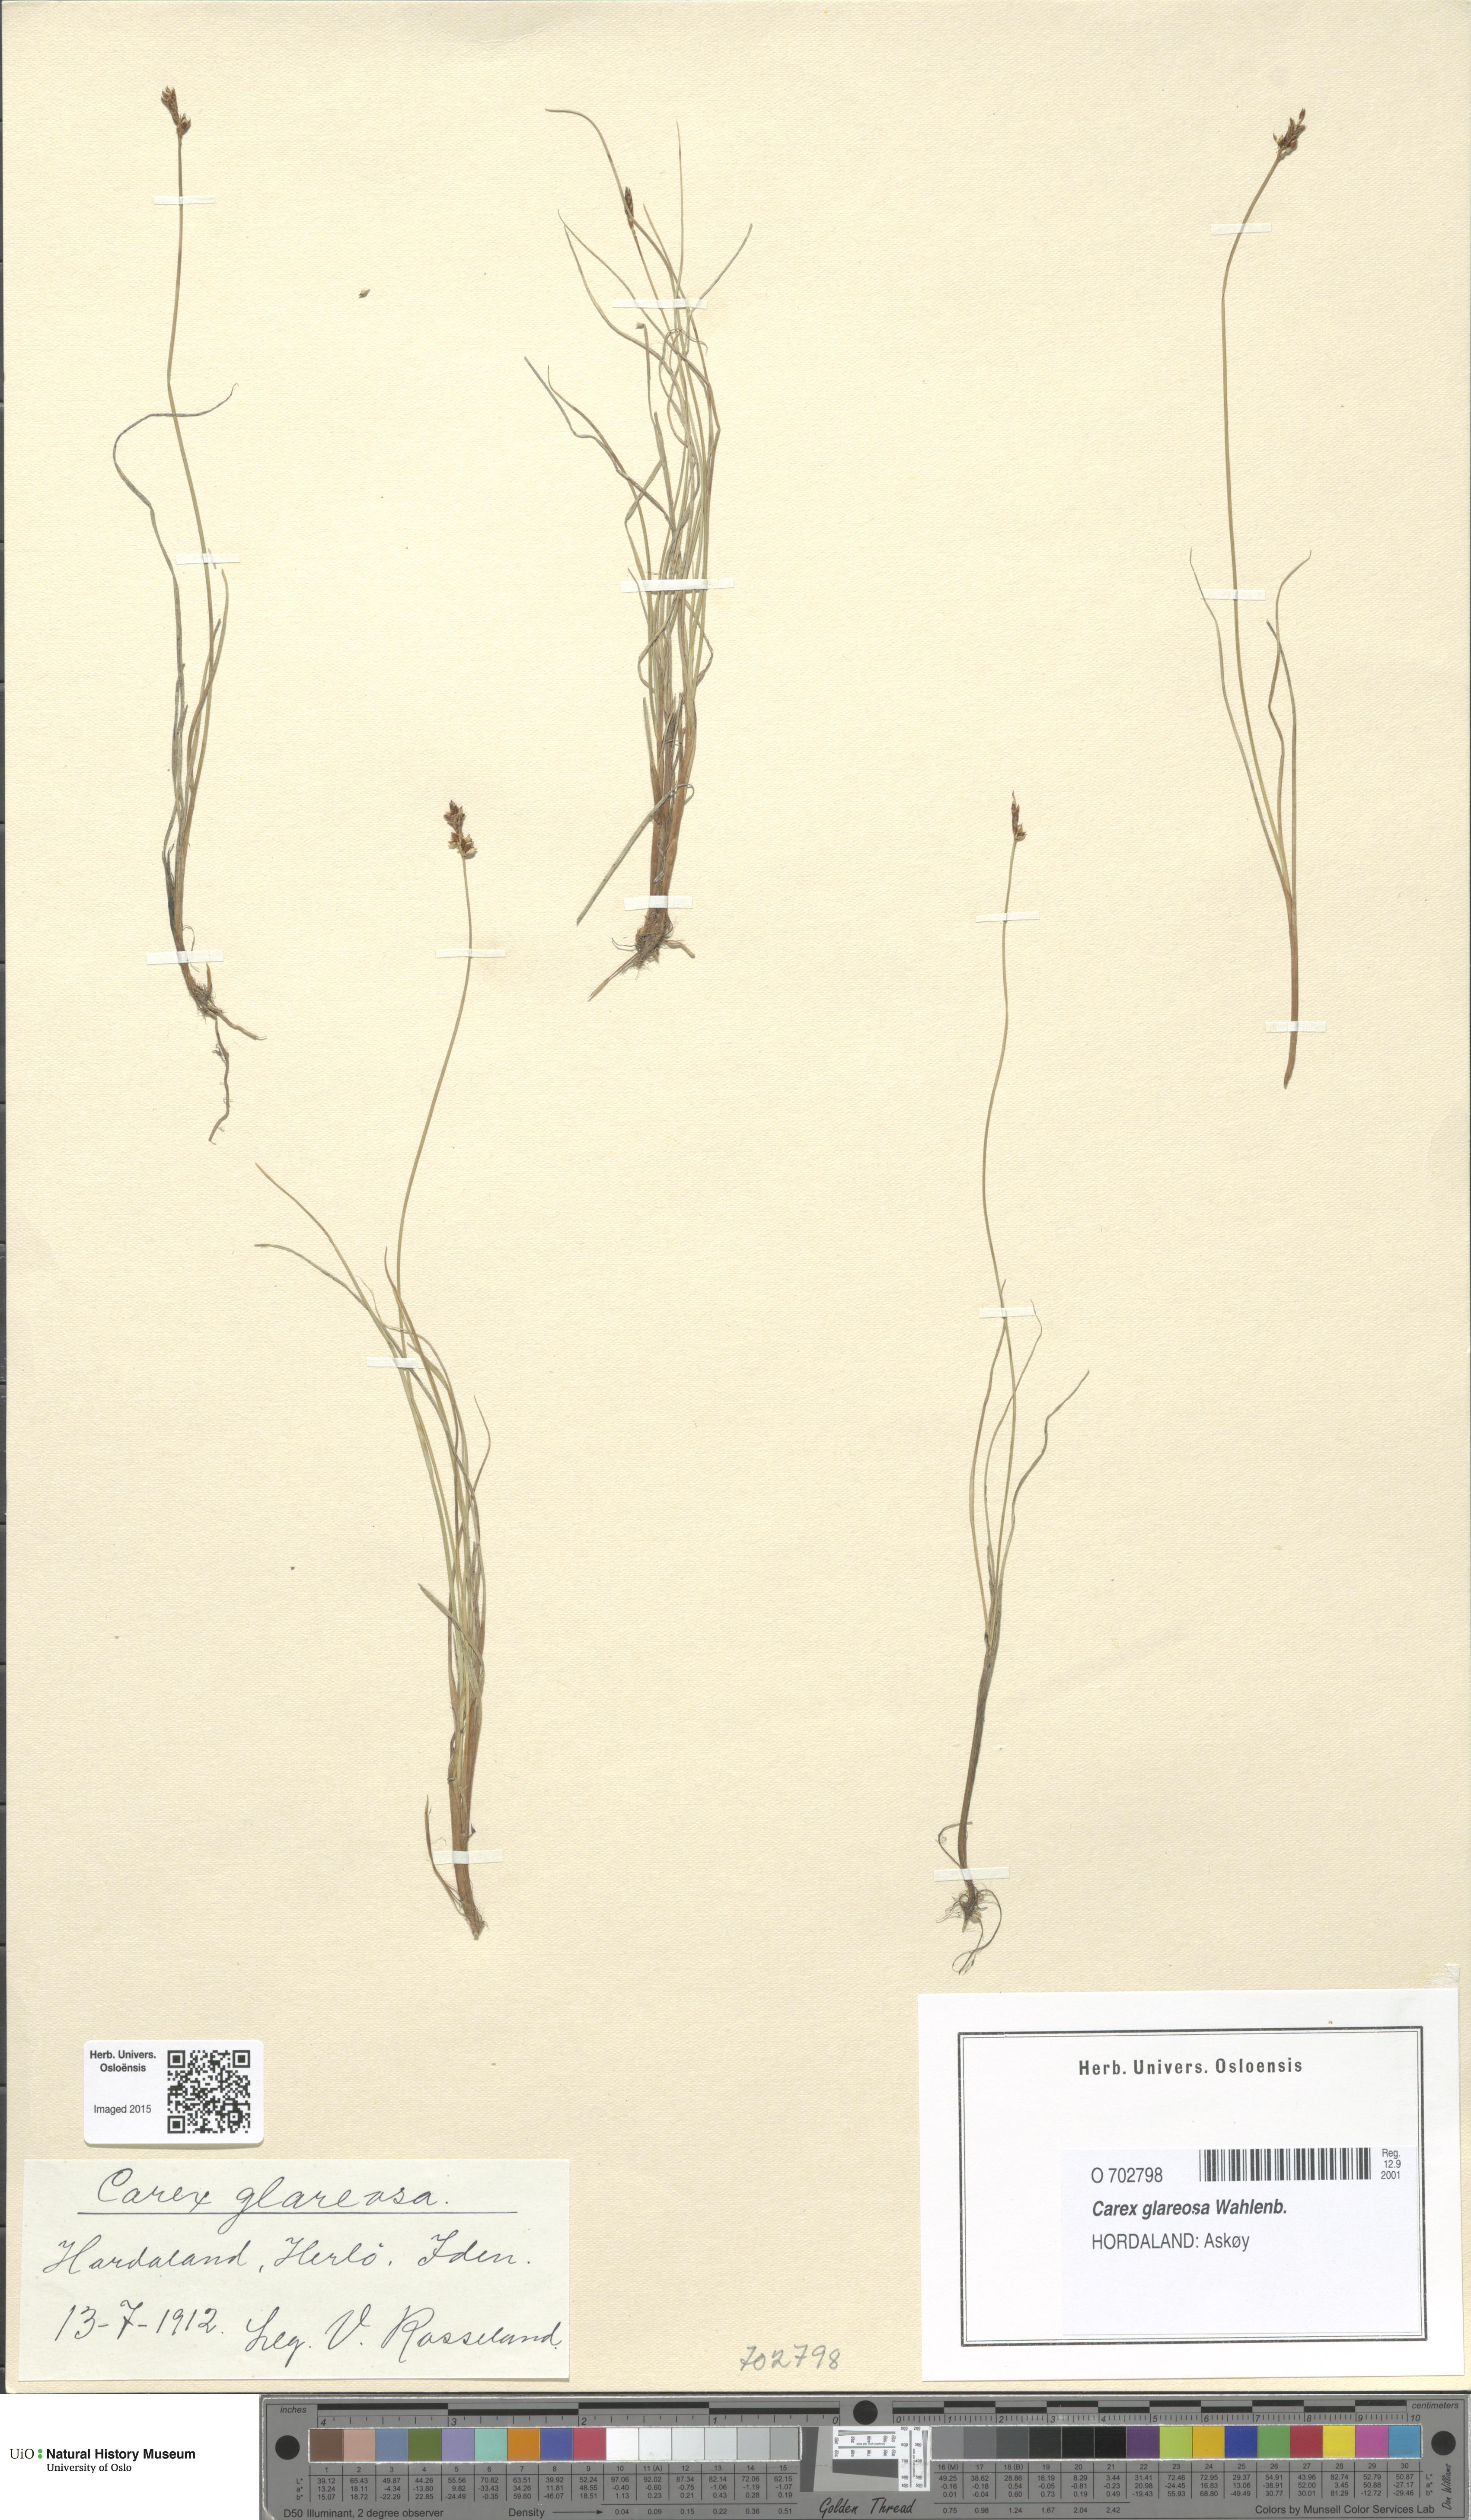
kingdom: Plantae
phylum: Tracheophyta
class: Liliopsida
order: Poales
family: Cyperaceae
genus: Carex
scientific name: Carex glareosa
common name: Clustered sedge
